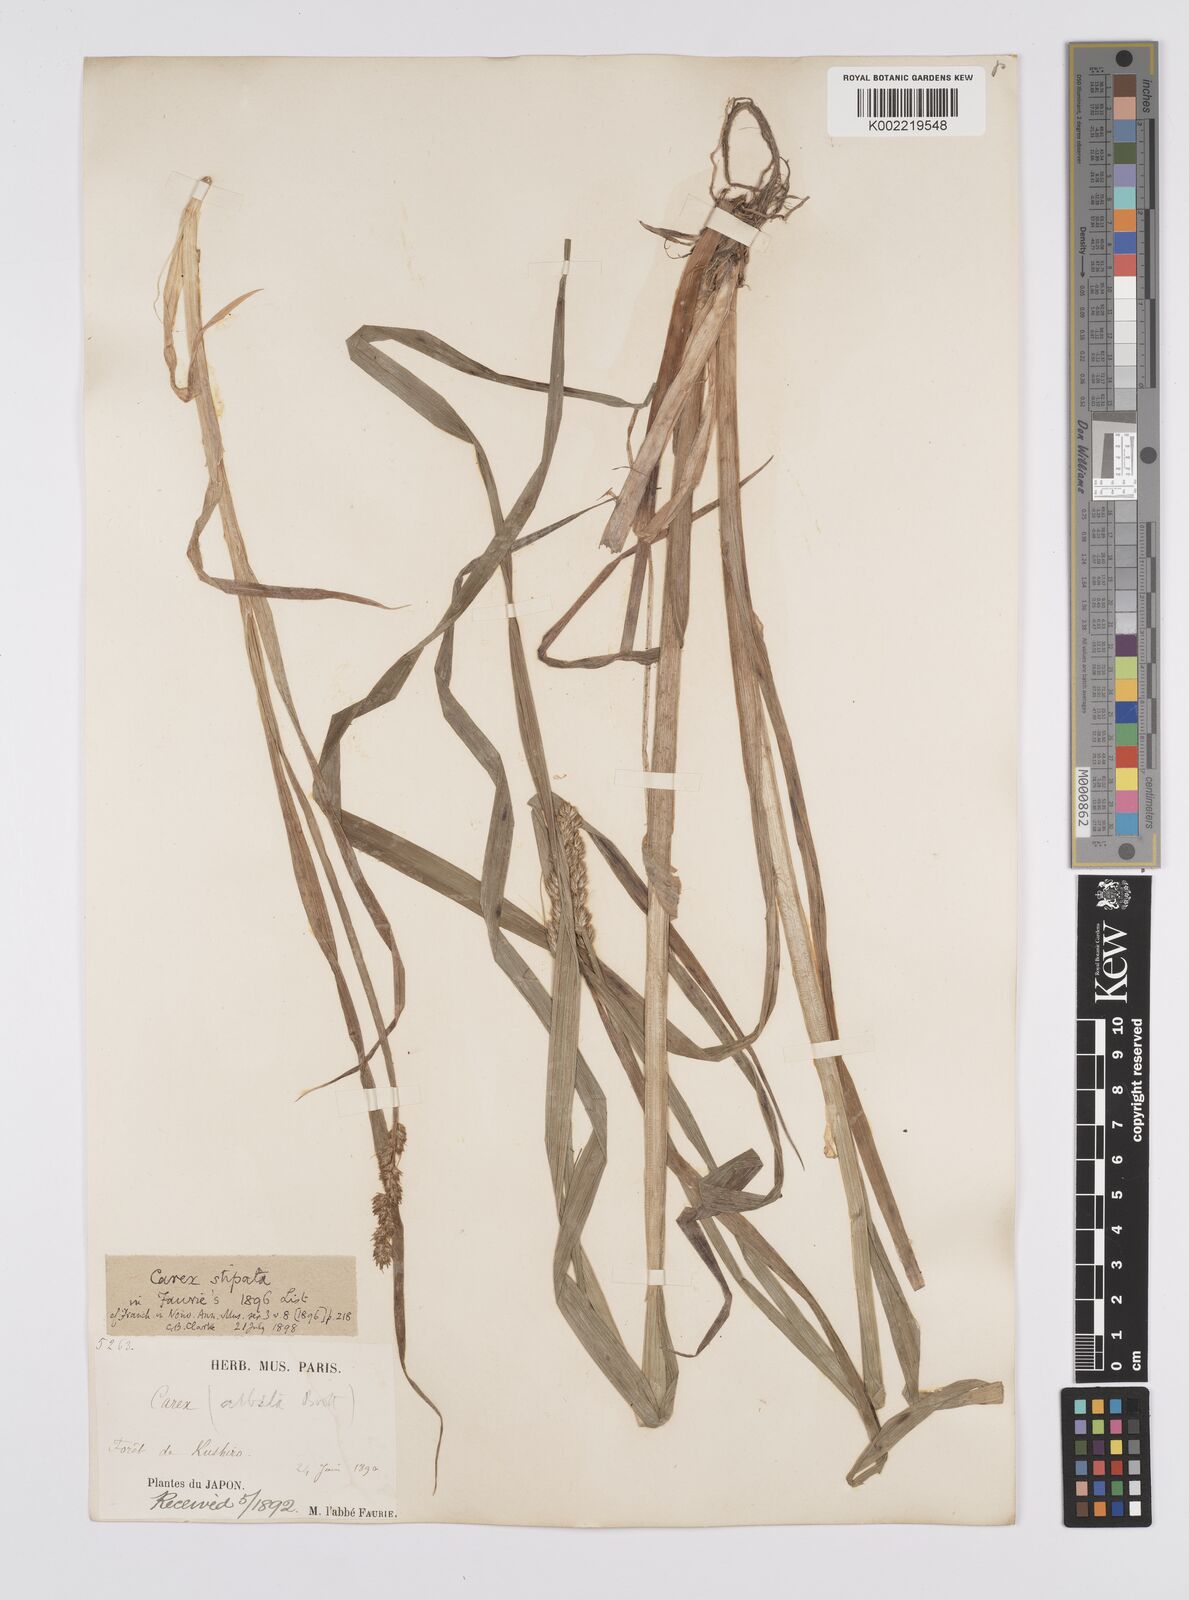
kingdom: Plantae
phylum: Tracheophyta
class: Liliopsida
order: Poales
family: Cyperaceae
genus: Carex
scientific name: Carex stipata
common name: Awl-fruited sedge
